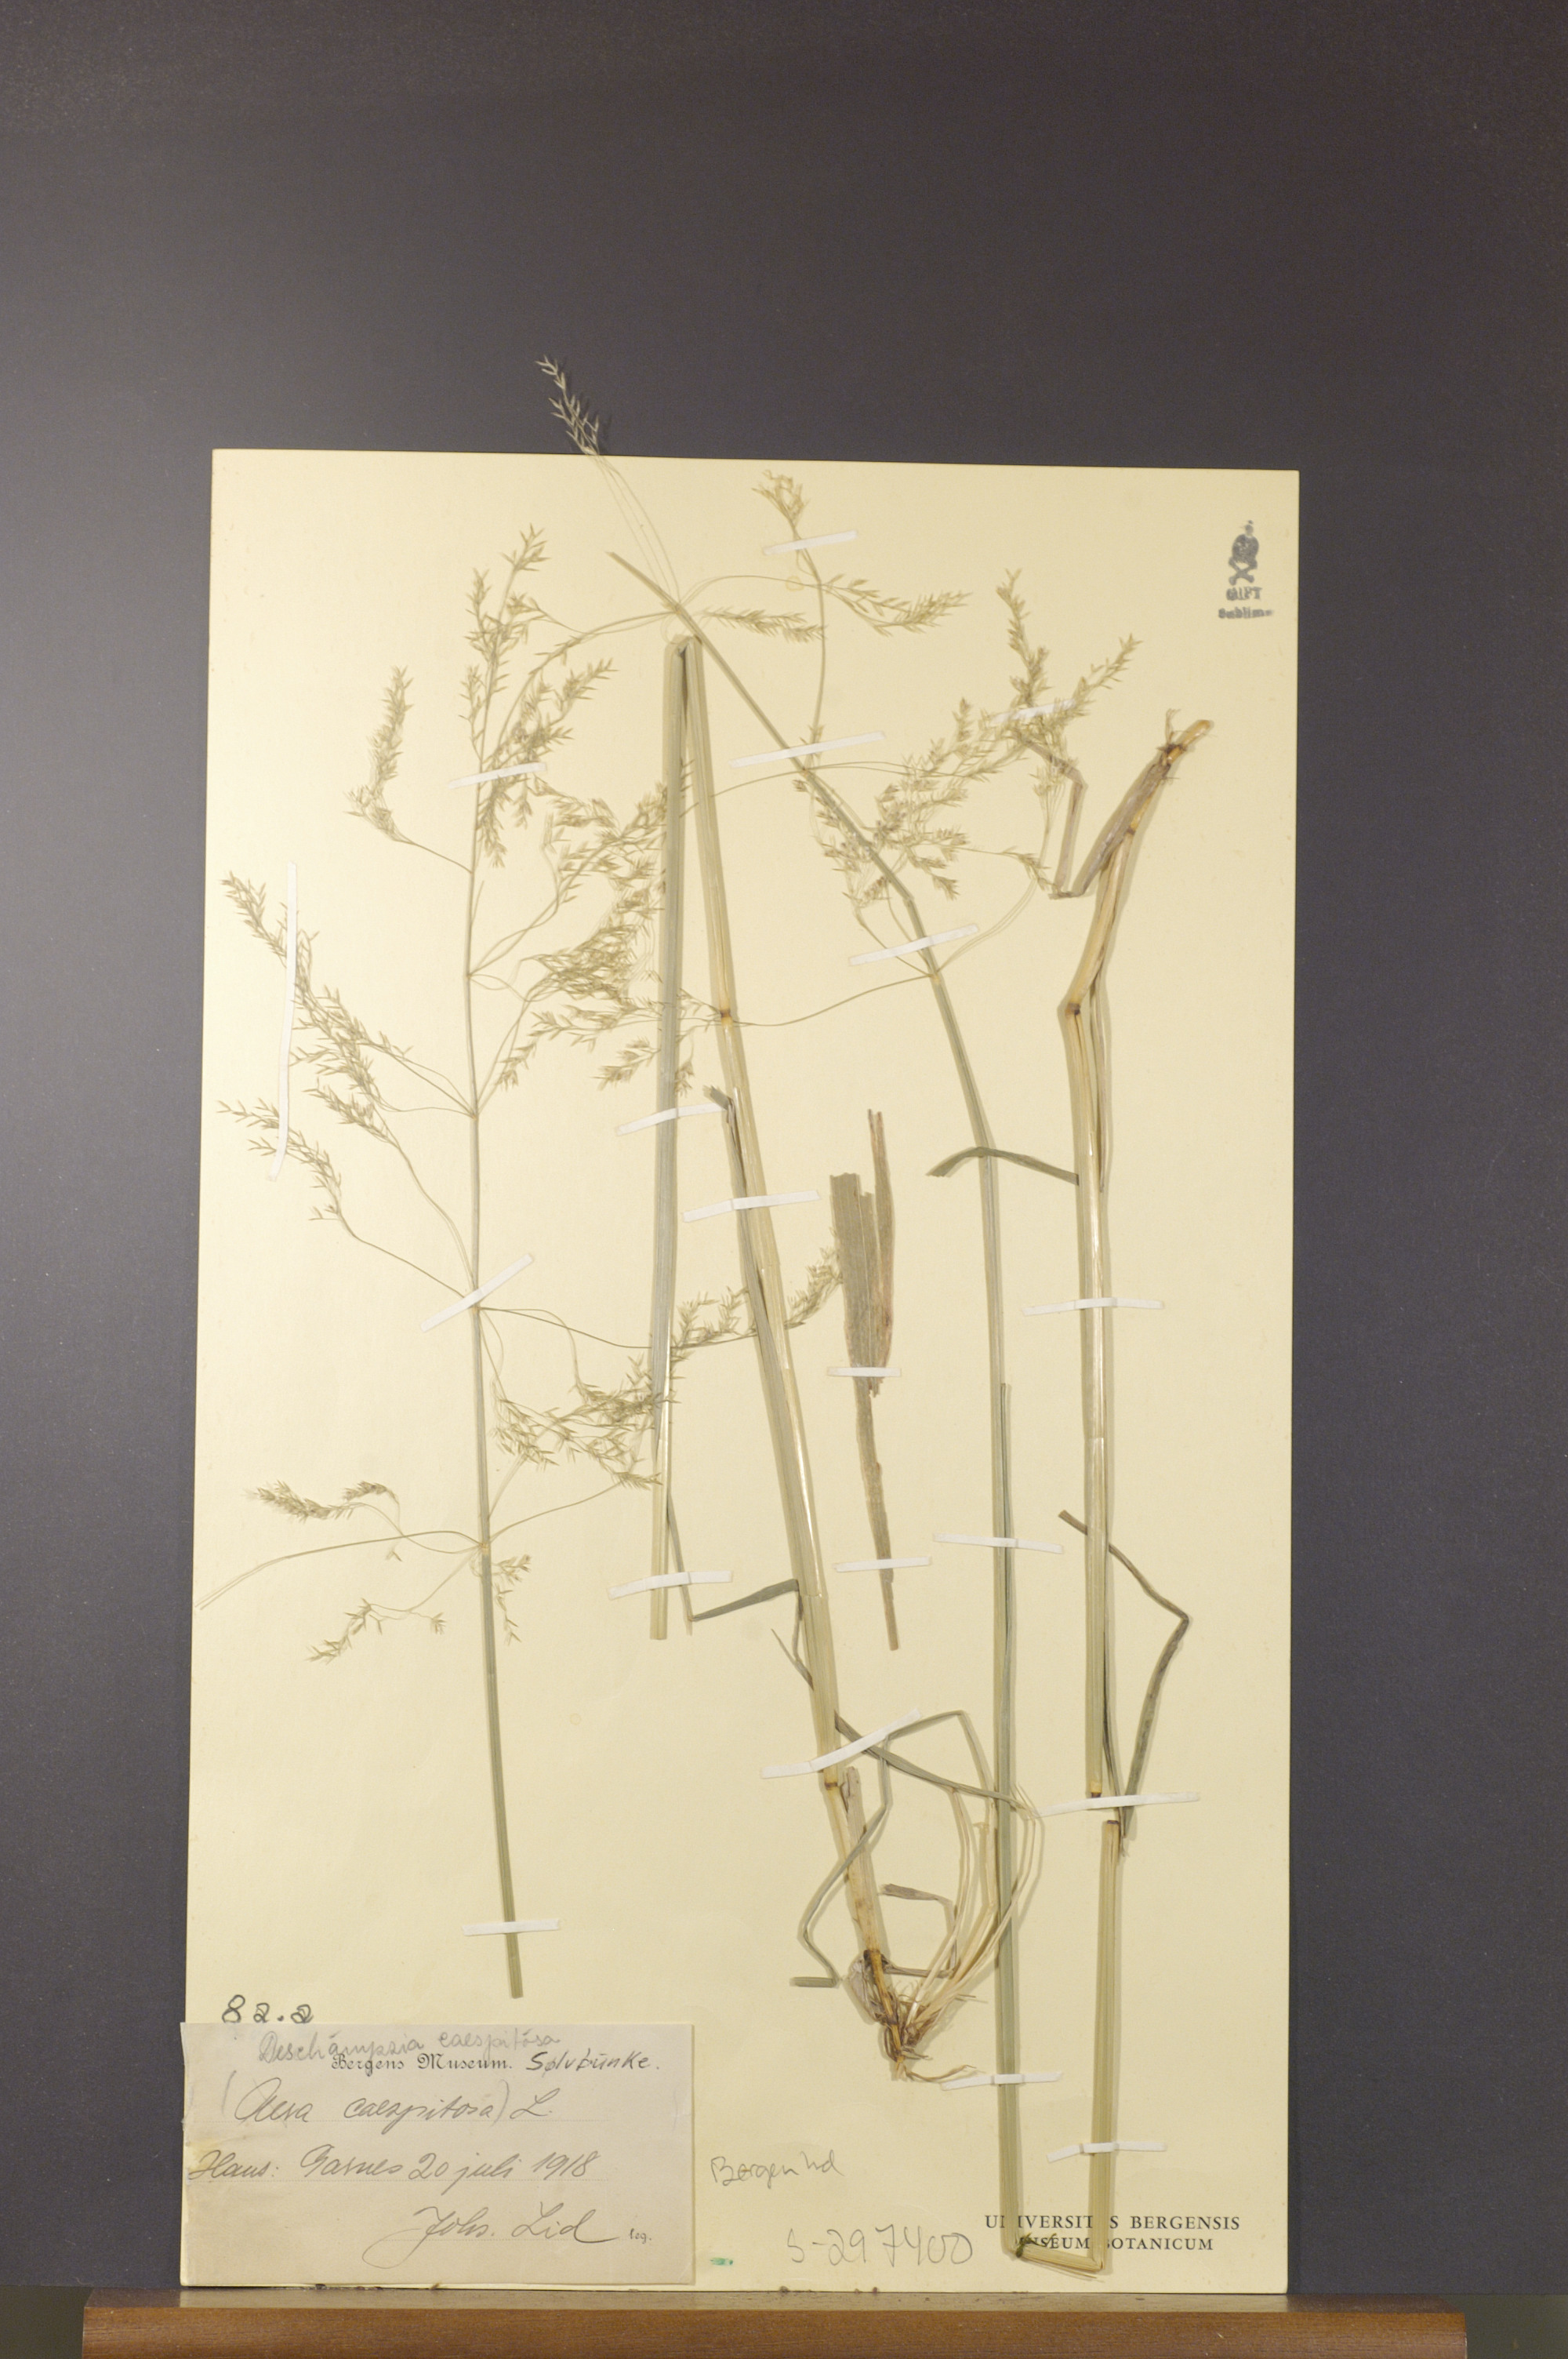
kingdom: Plantae
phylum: Tracheophyta
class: Liliopsida
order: Poales
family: Poaceae
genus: Deschampsia
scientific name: Deschampsia cespitosa
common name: Tufted hair-grass
